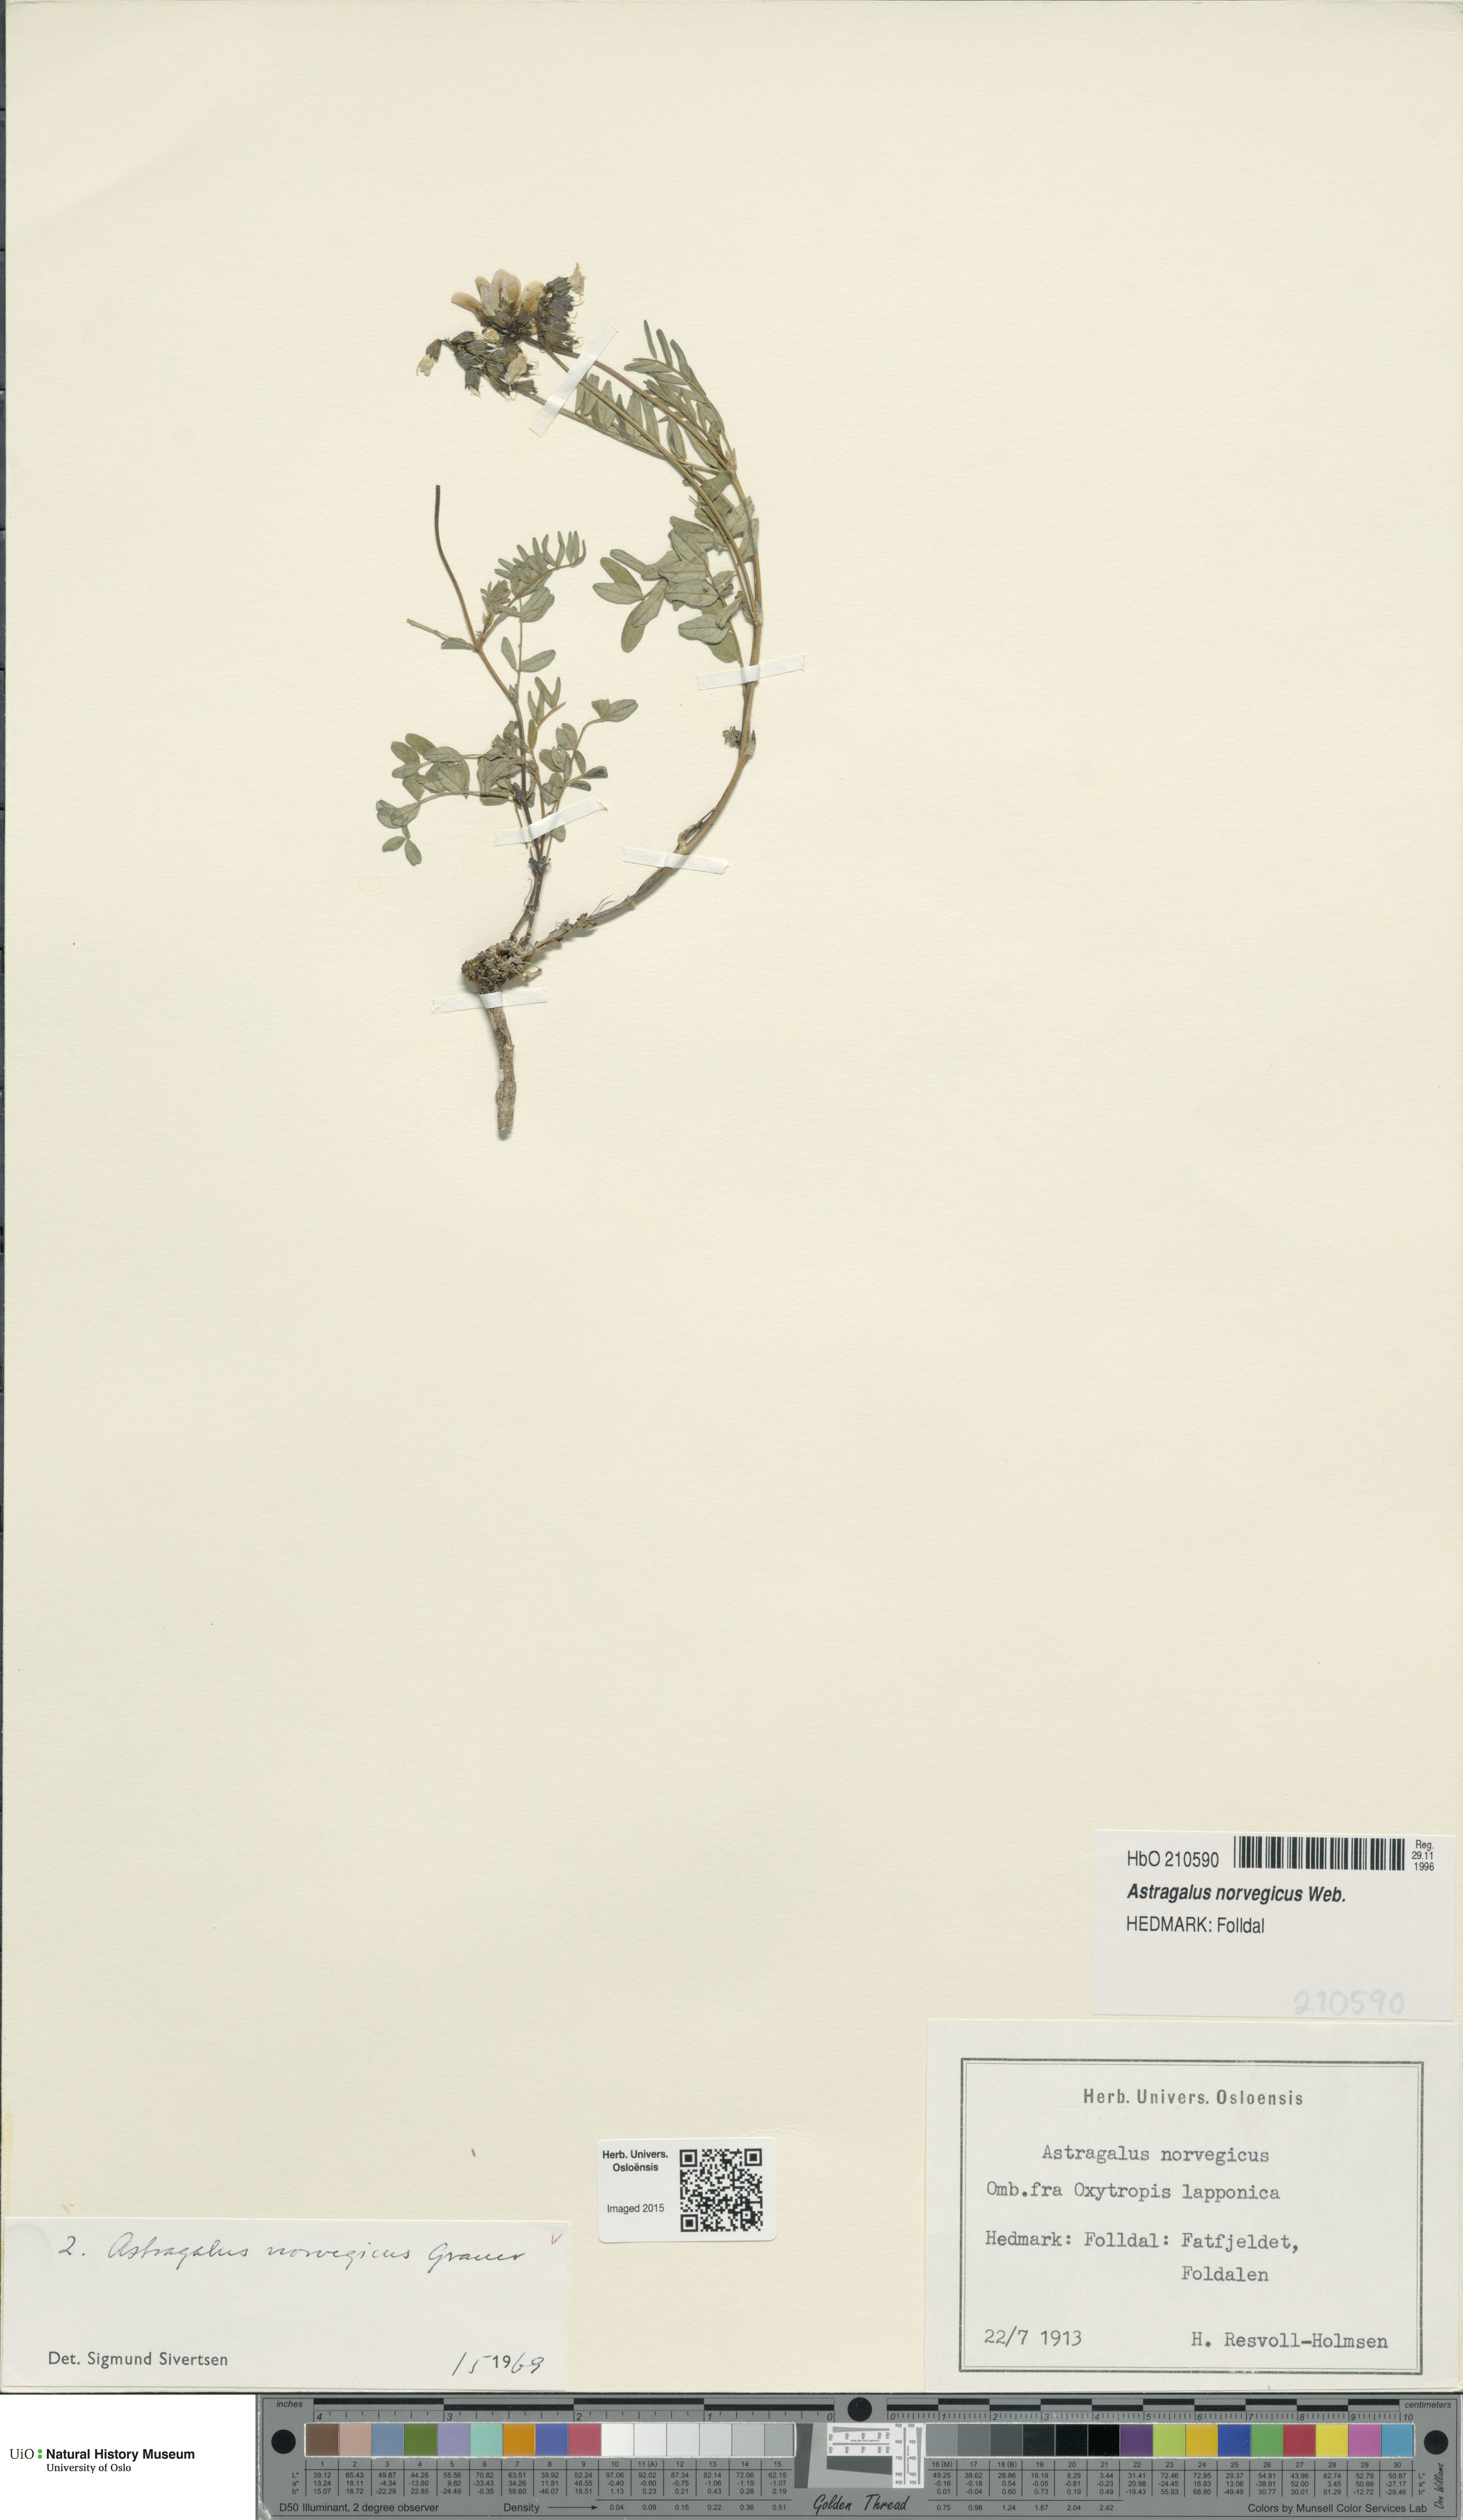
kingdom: Plantae
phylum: Tracheophyta
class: Magnoliopsida
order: Fabales
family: Fabaceae
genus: Astragalus
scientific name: Astragalus norvegicus
